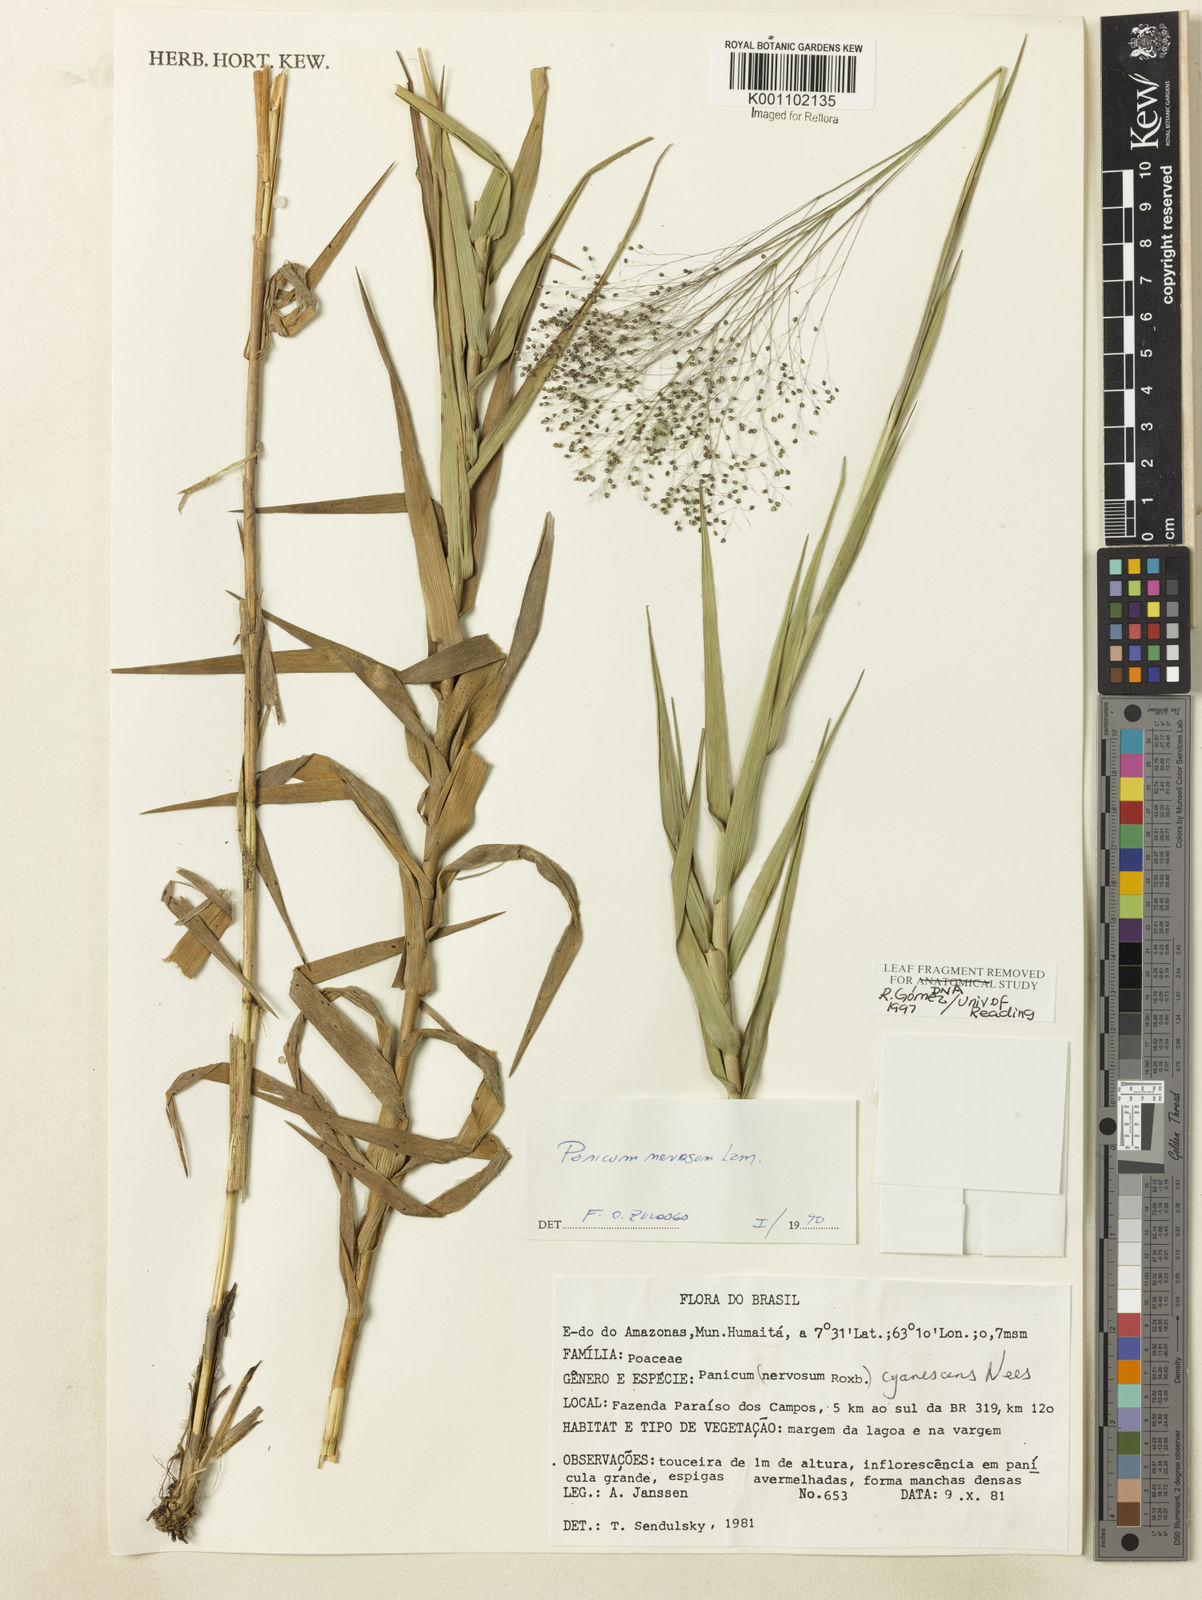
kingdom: Plantae
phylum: Tracheophyta
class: Liliopsida
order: Poales
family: Poaceae
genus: Trichanthecium
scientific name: Trichanthecium nervosum
